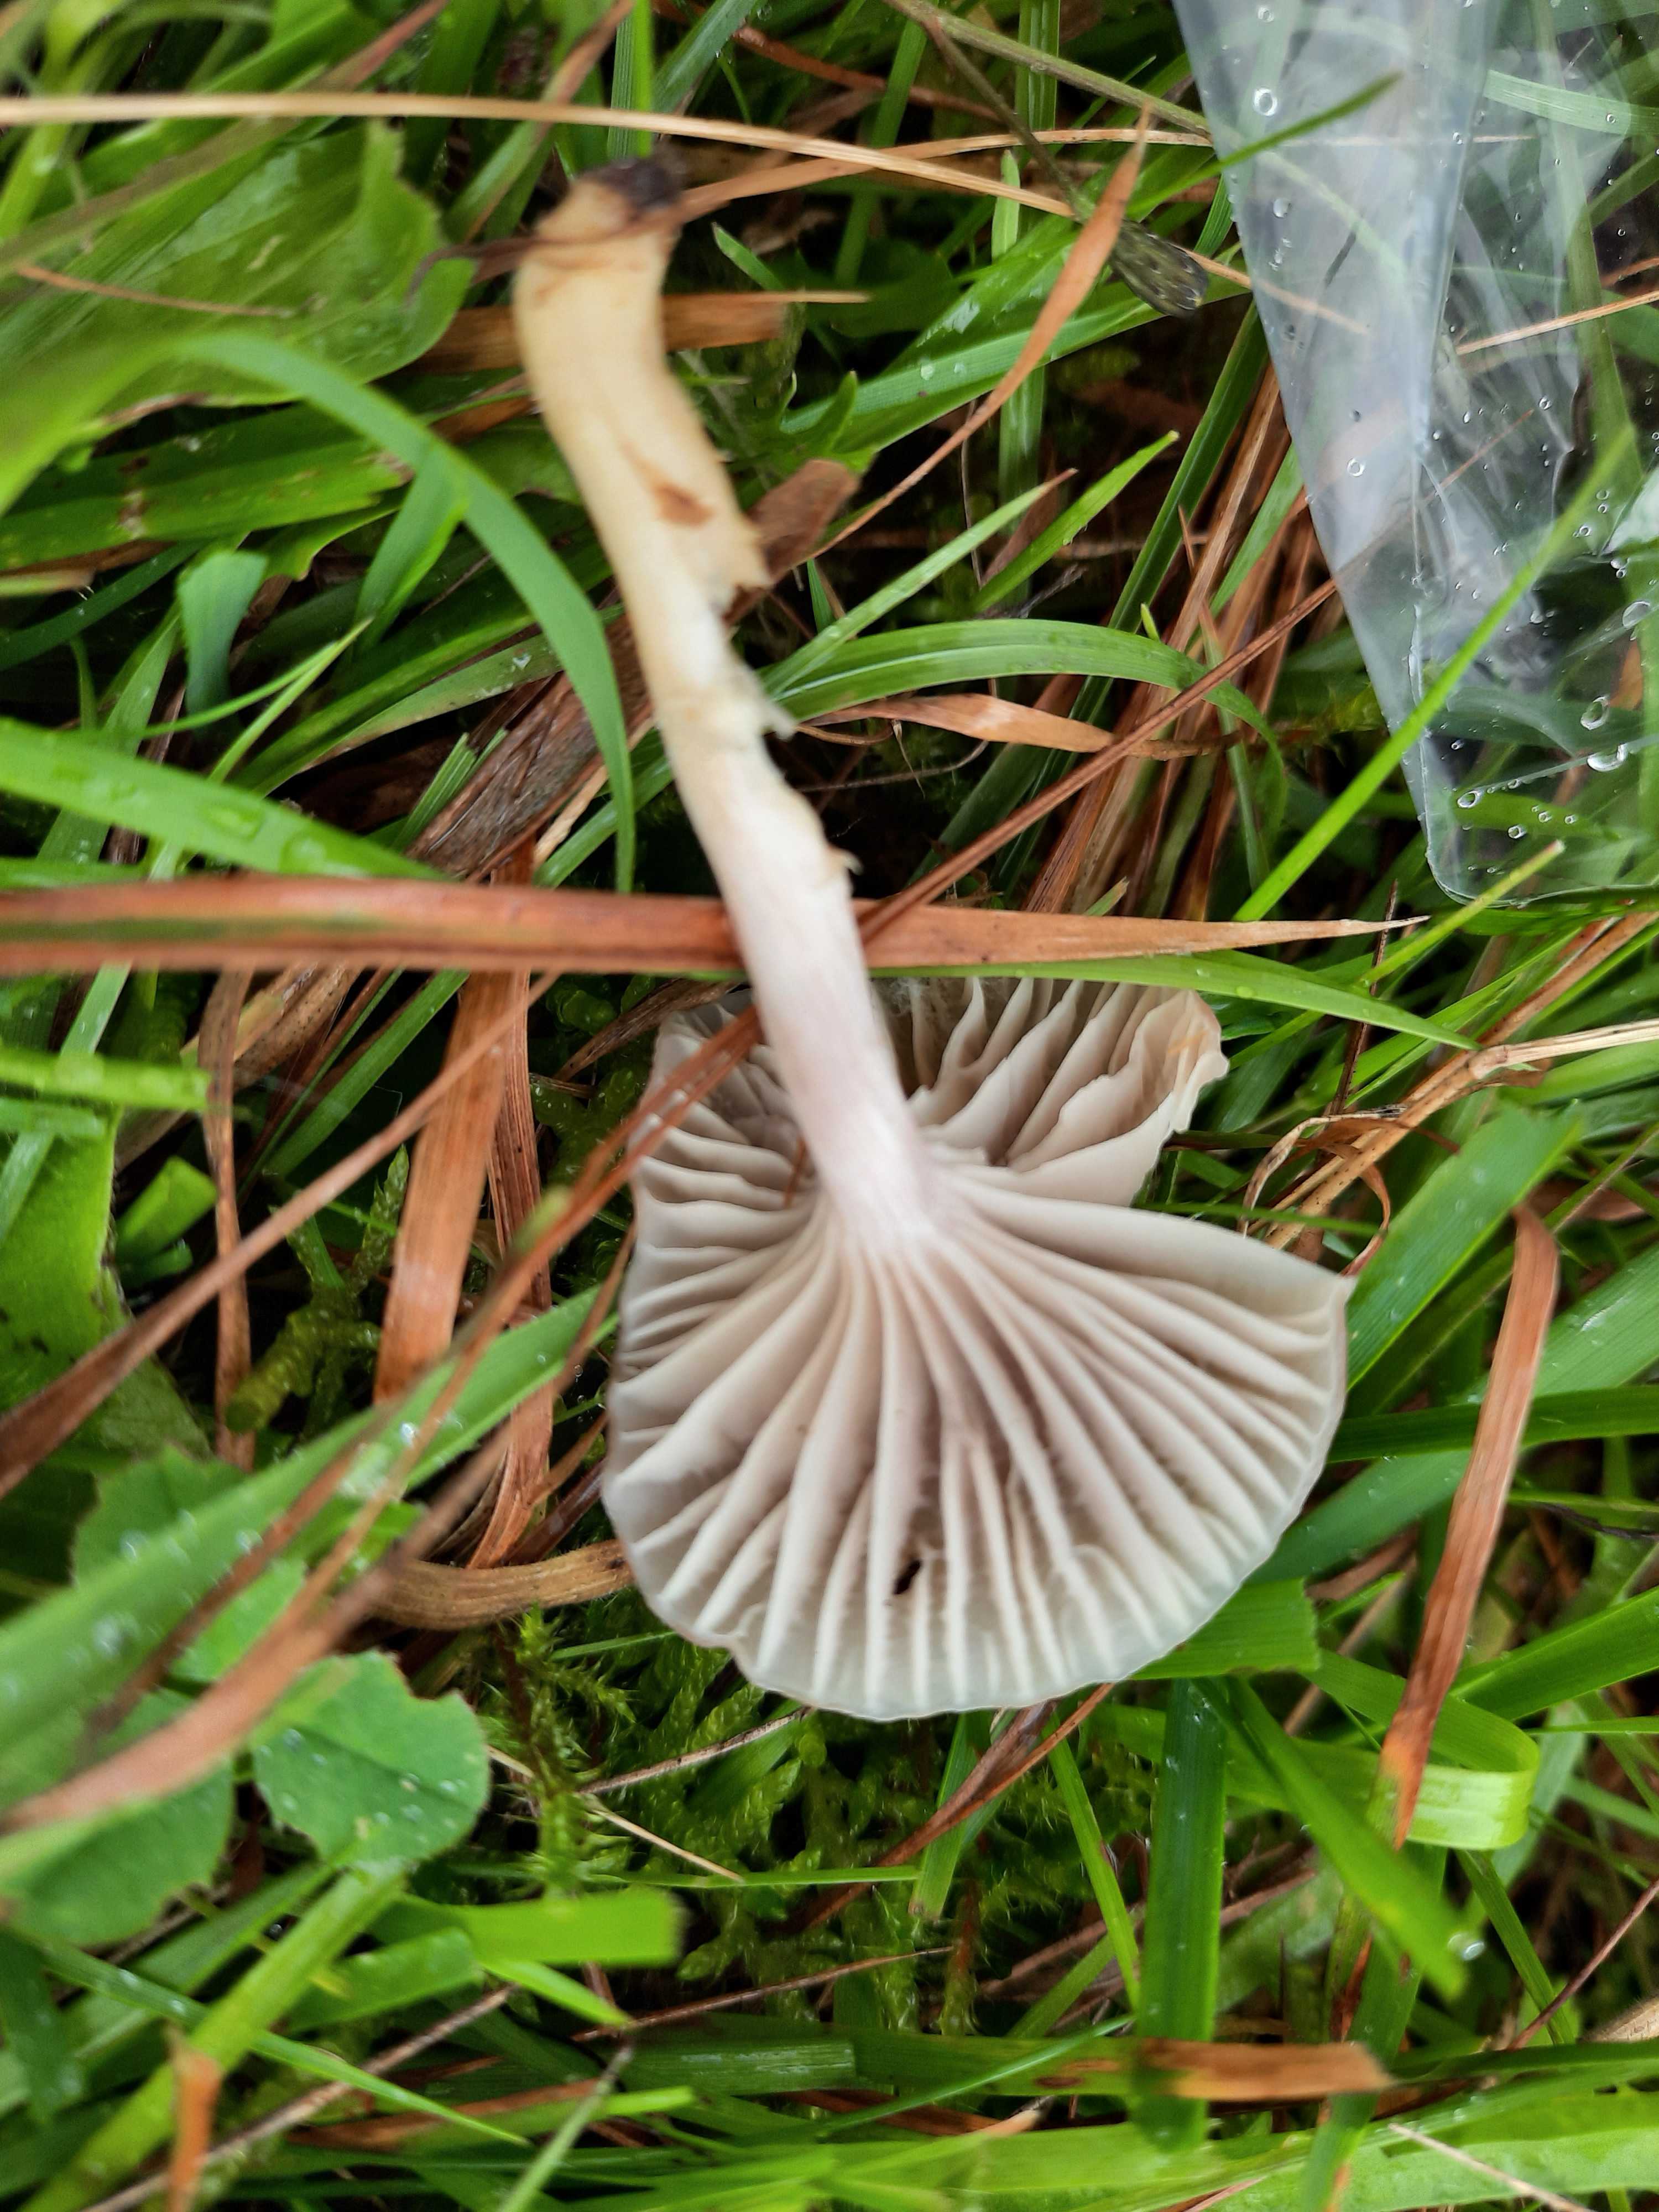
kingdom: Fungi
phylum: Basidiomycota
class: Agaricomycetes
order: Agaricales
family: Hygrophoraceae
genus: Cuphophyllus
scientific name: Cuphophyllus flavipesoides
